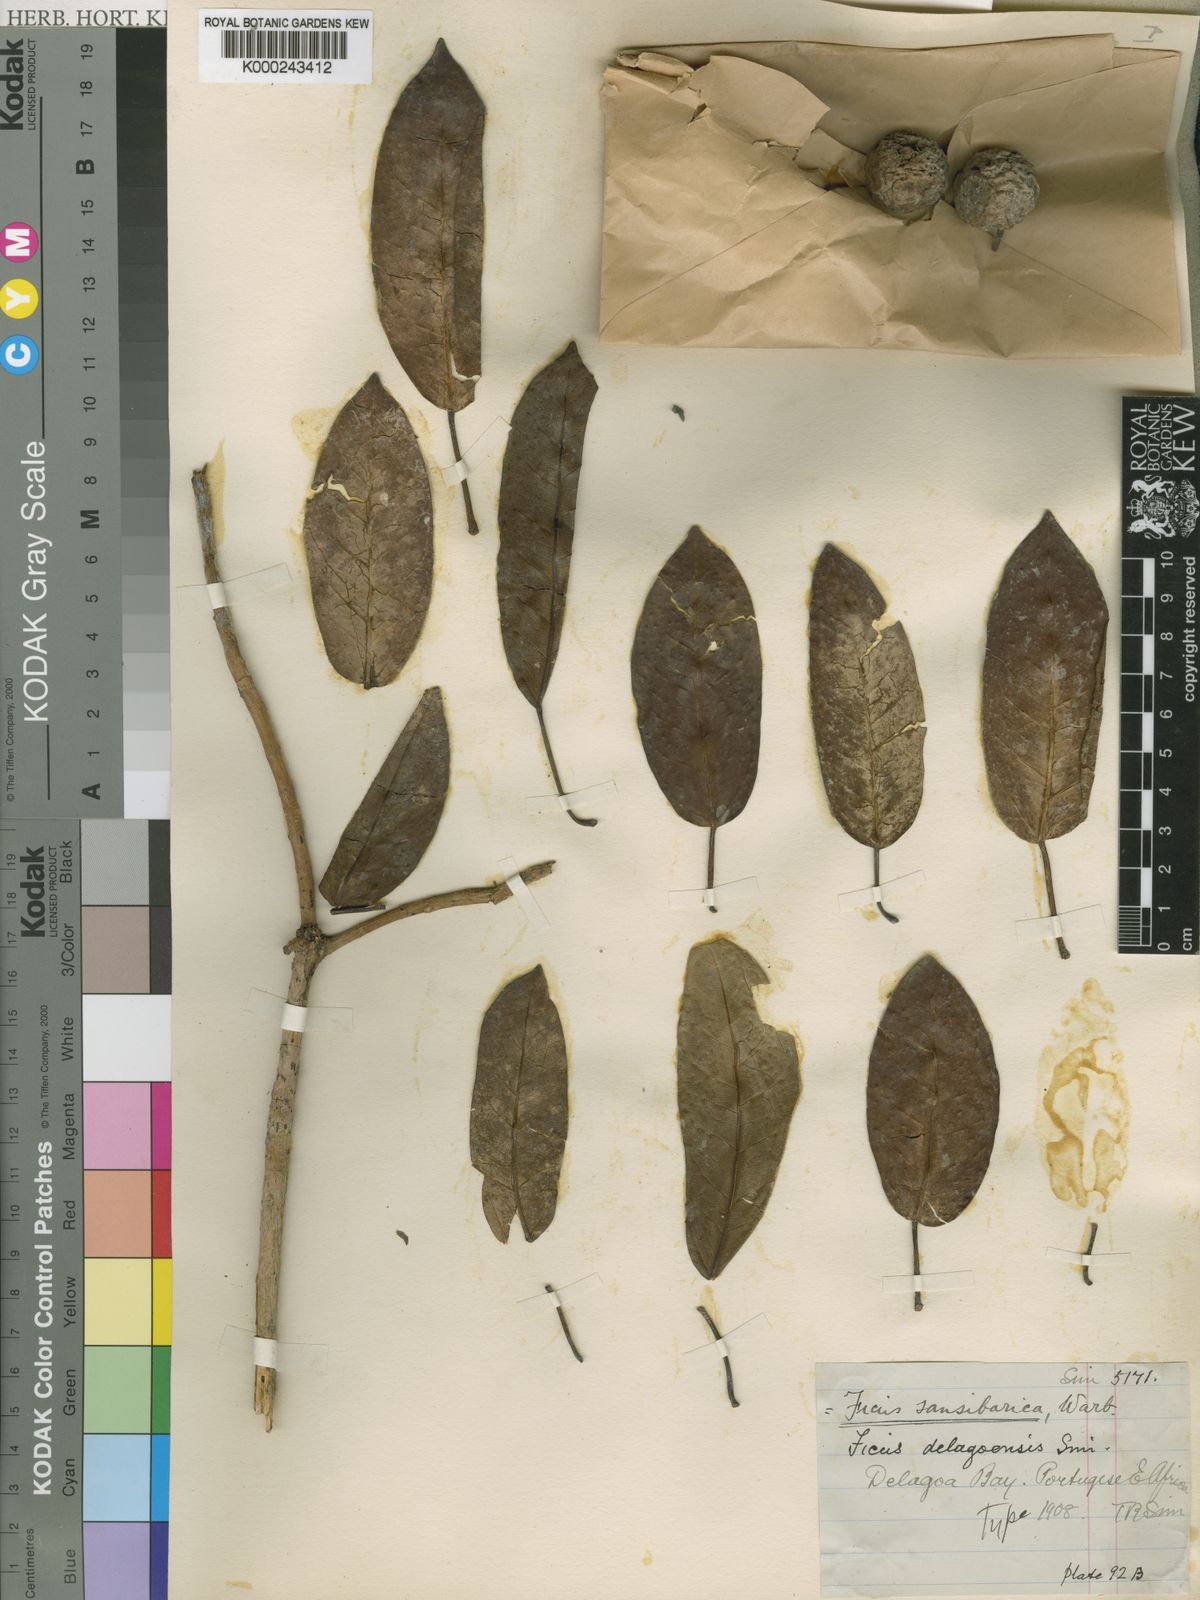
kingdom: Plantae
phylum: Tracheophyta
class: Magnoliopsida
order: Rosales
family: Moraceae
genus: Ficus
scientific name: Ficus sansibarica
